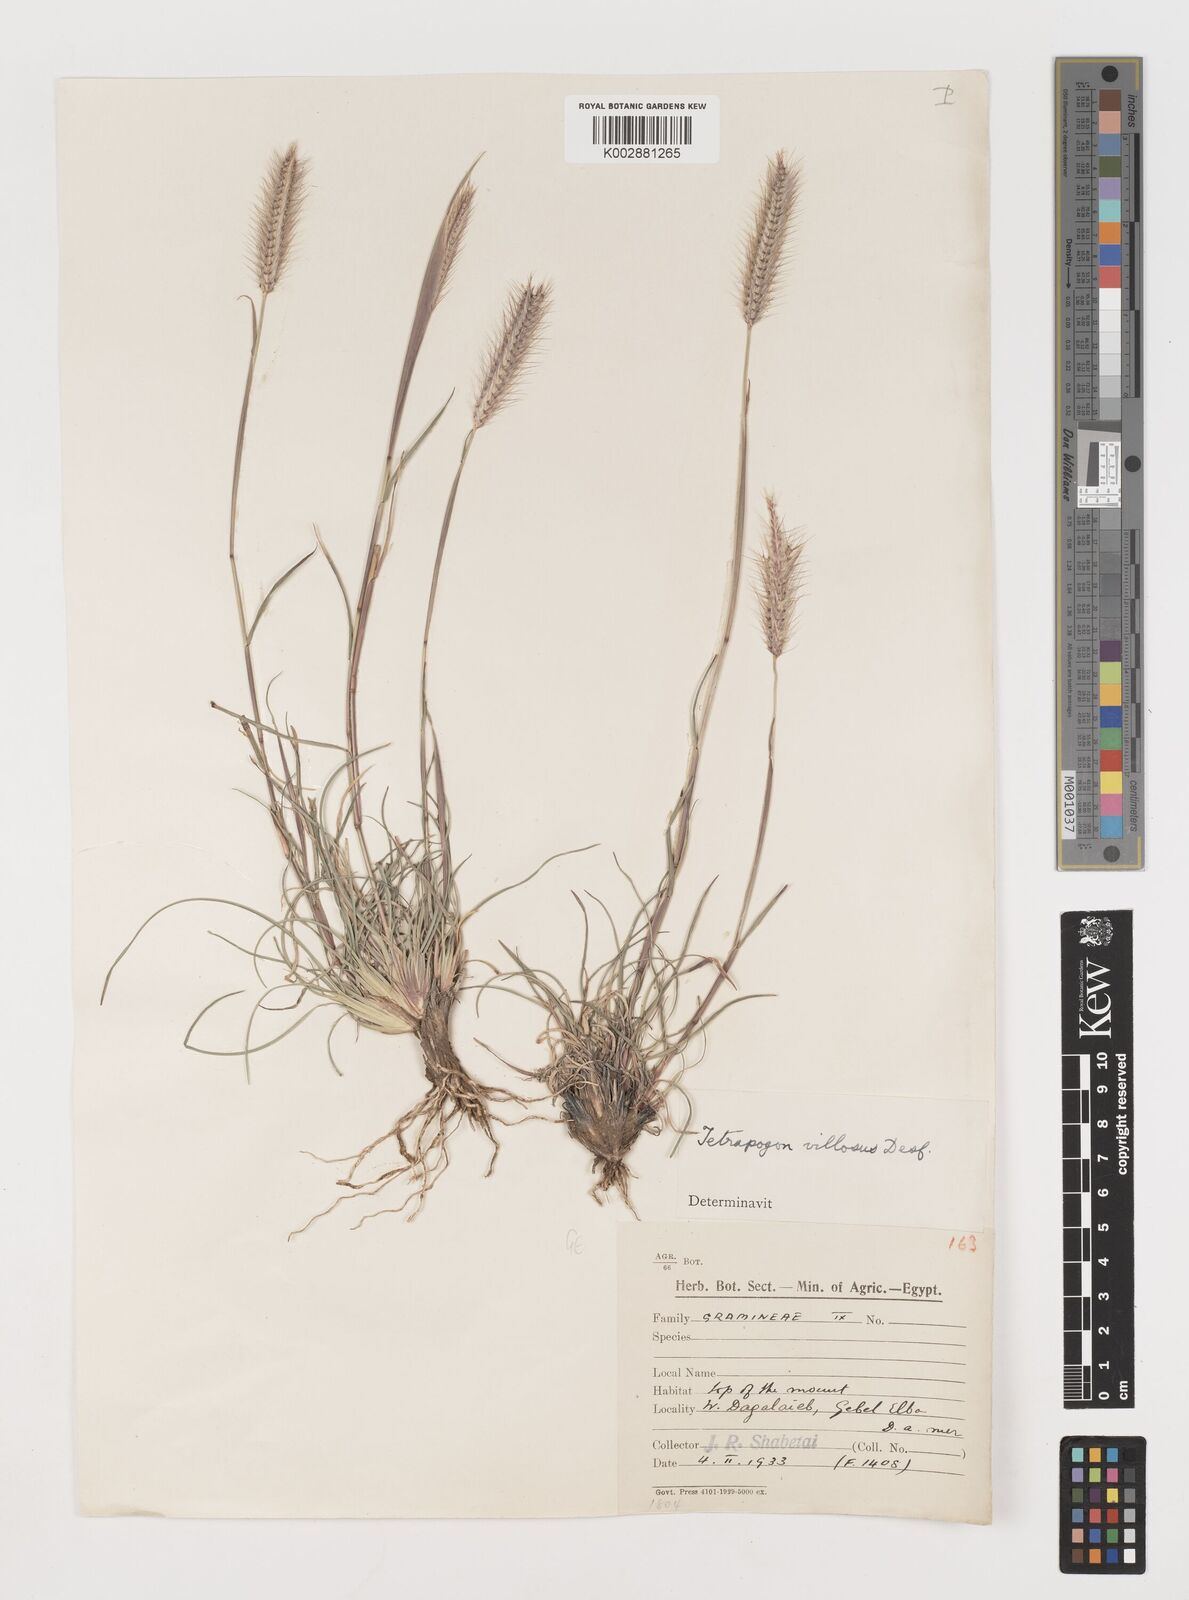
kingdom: Plantae
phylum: Tracheophyta
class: Liliopsida
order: Poales
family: Poaceae
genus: Tetrapogon
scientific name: Tetrapogon villosus
